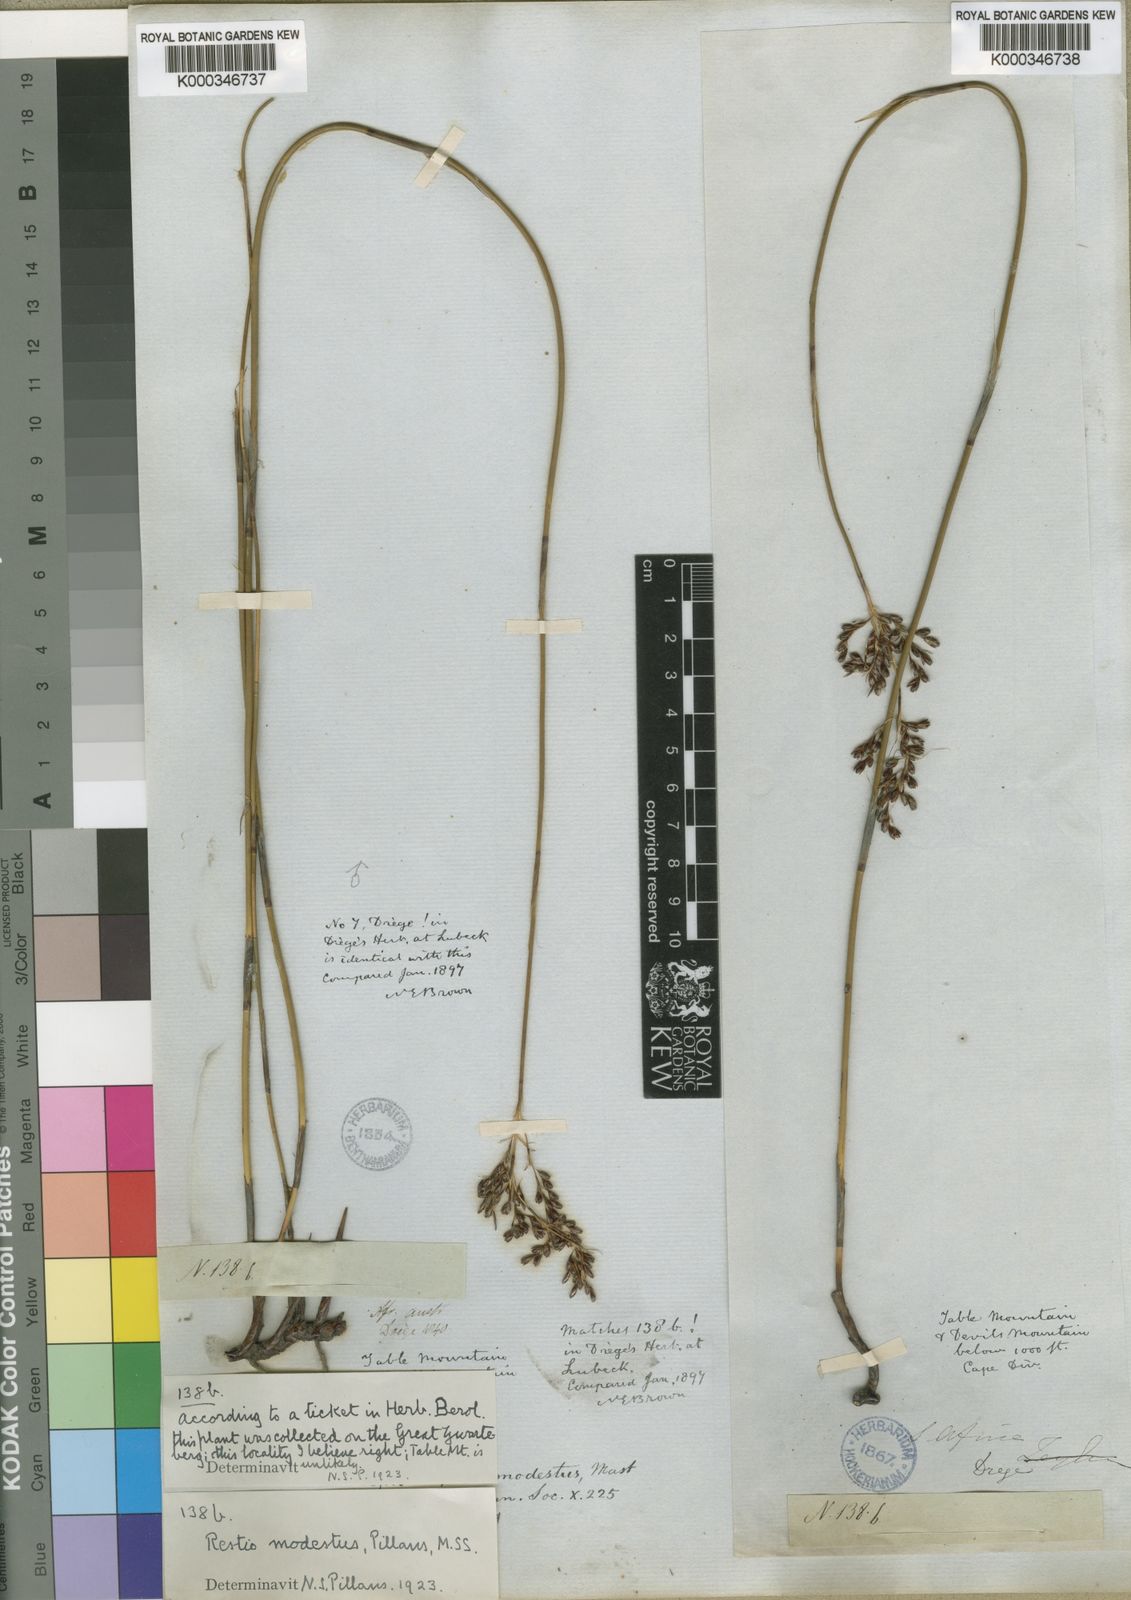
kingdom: Plantae
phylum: Tracheophyta
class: Liliopsida
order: Poales
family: Restionaceae
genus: Rhodocoma
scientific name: Rhodocoma fruticosa
